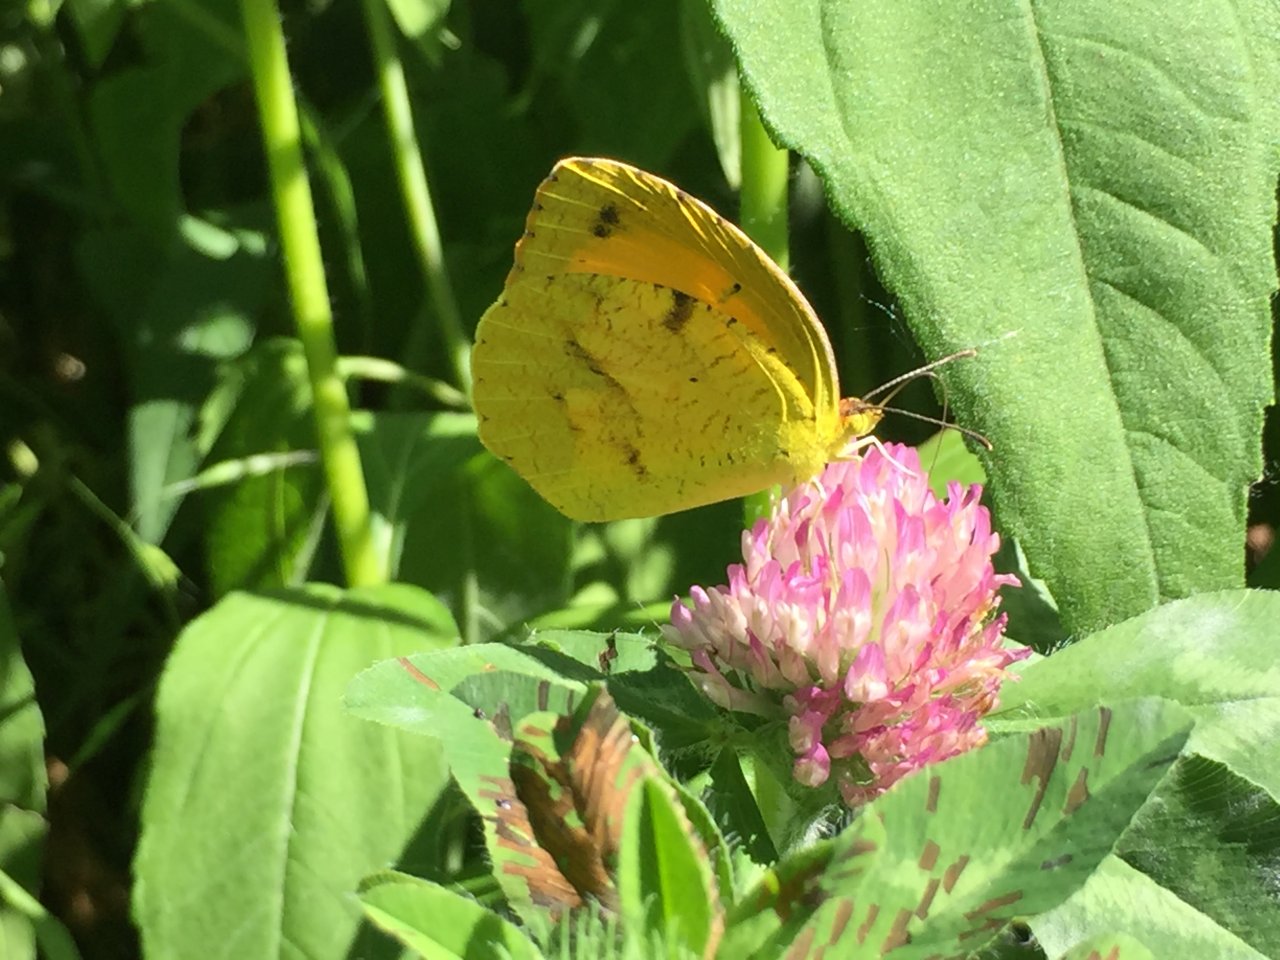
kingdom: Animalia
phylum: Arthropoda
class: Insecta
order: Lepidoptera
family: Pieridae
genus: Abaeis
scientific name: Abaeis nicippe
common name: Sleepy Orange
